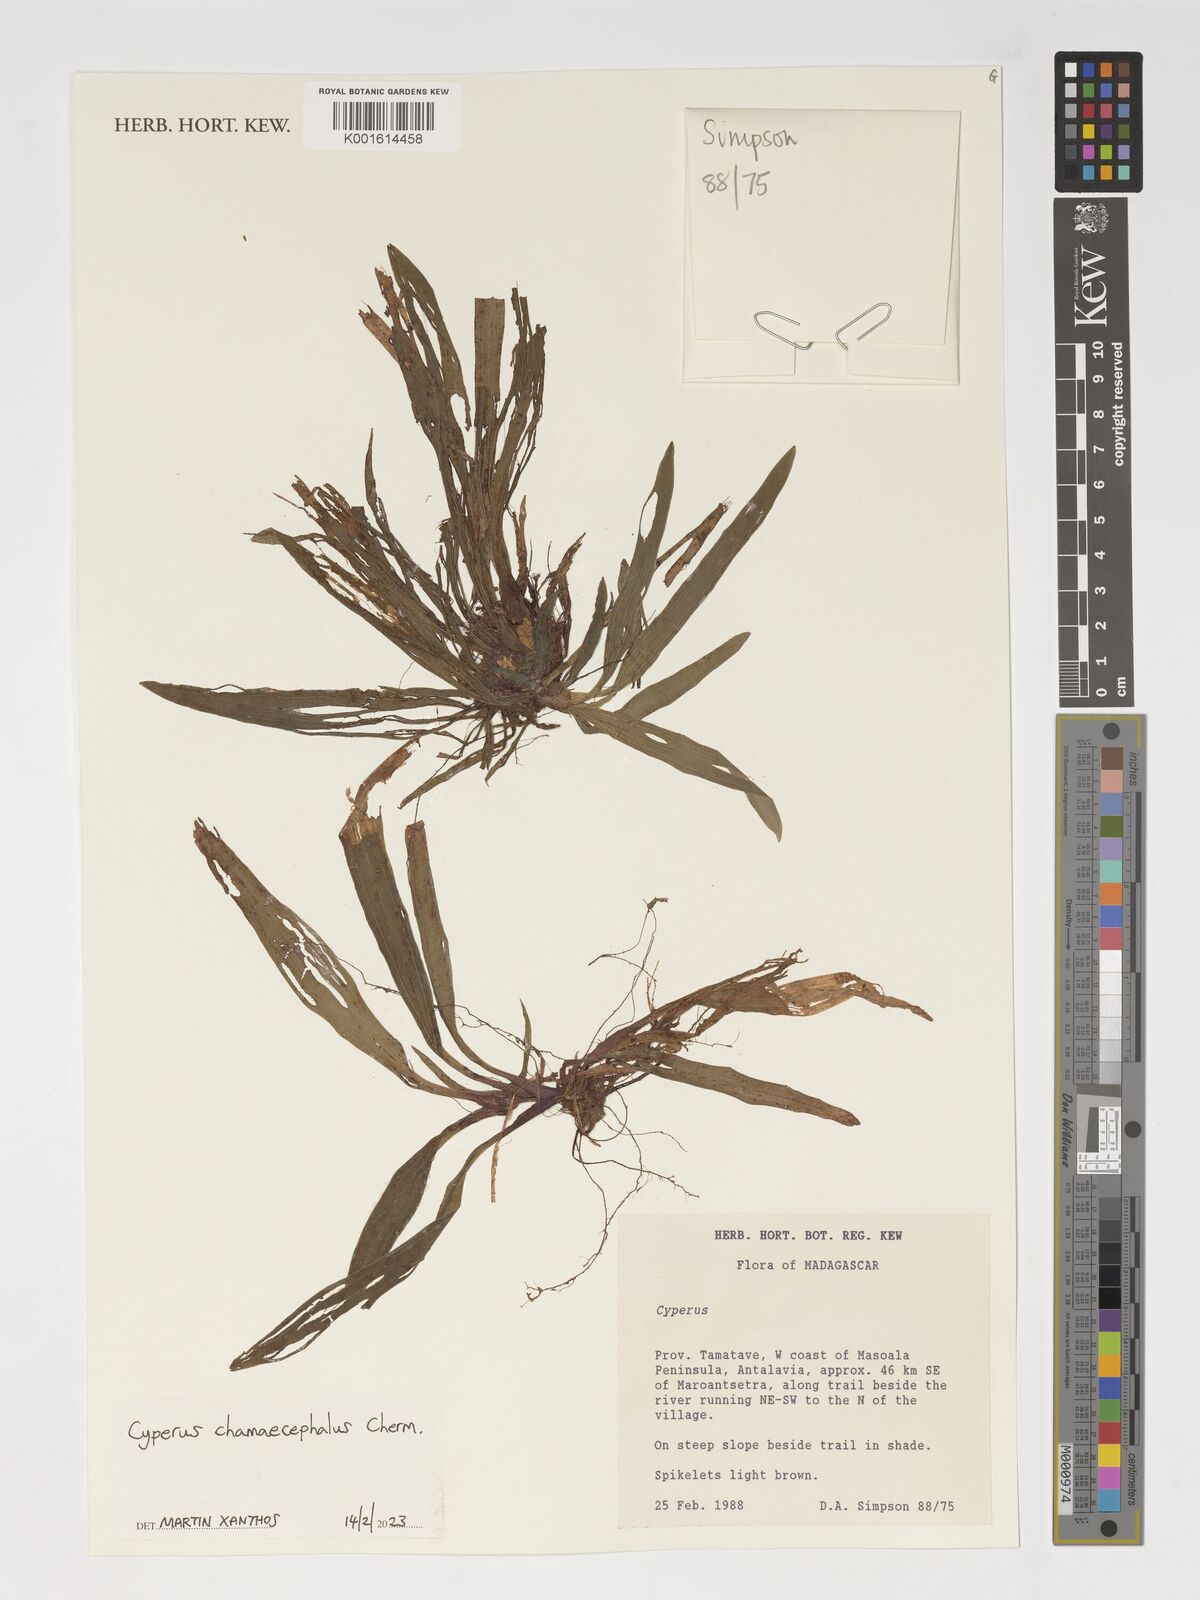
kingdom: Plantae
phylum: Tracheophyta
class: Liliopsida
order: Poales
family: Cyperaceae
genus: Cyperus
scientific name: Cyperus chamaecephalus
